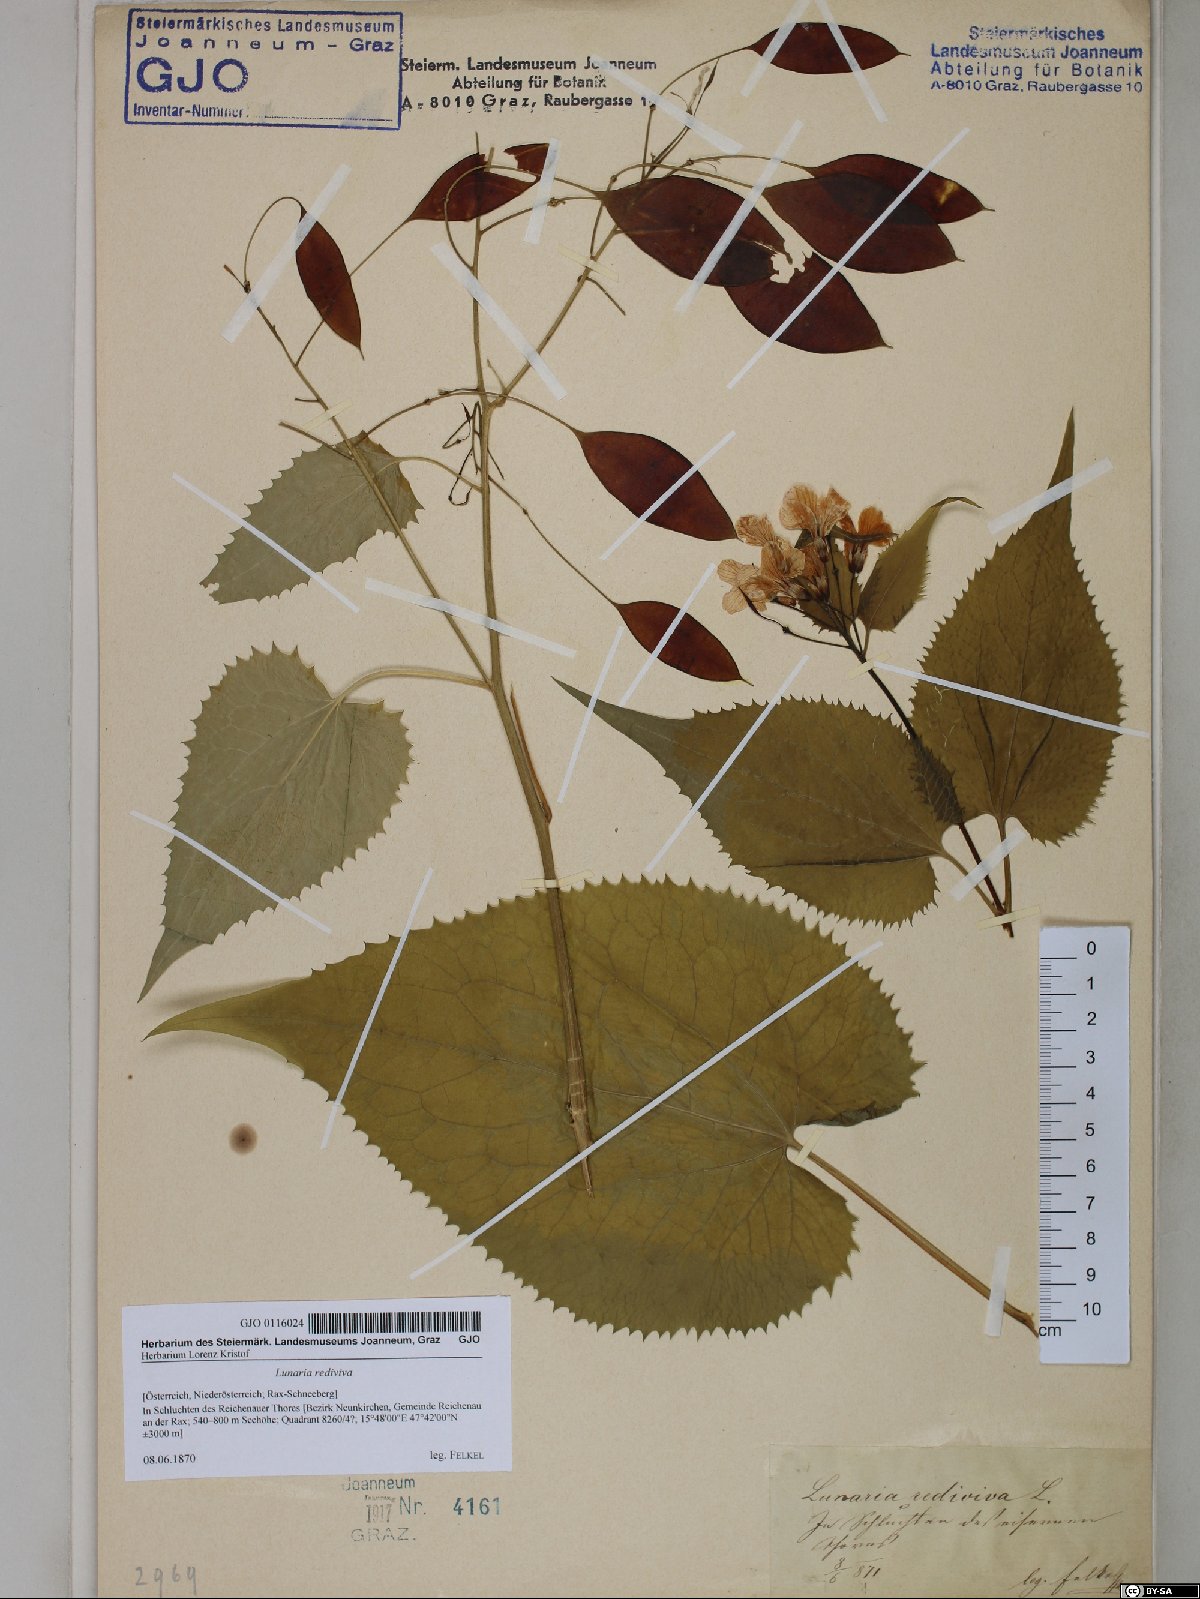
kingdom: Plantae
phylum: Tracheophyta
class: Magnoliopsida
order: Brassicales
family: Brassicaceae
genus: Lunaria
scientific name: Lunaria rediviva
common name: Perennial honesty
